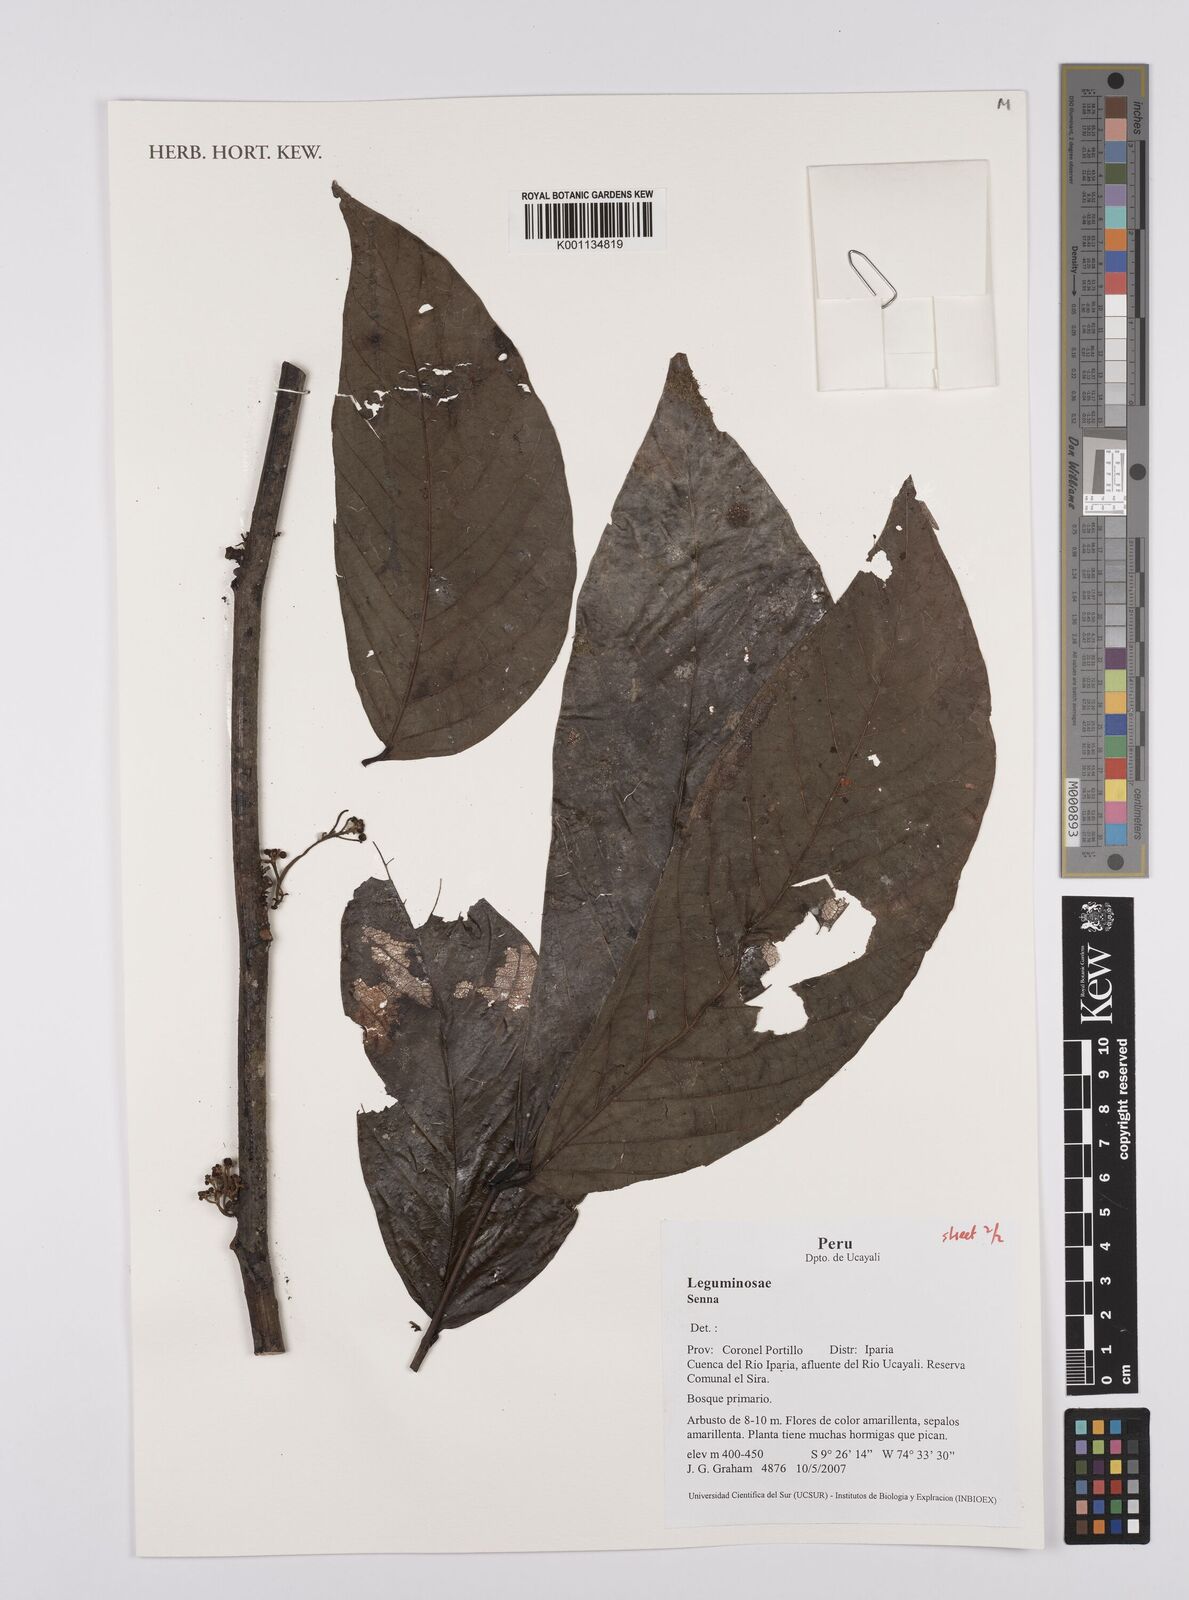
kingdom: Plantae
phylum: Tracheophyta
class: Magnoliopsida
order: Fabales
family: Fabaceae
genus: Senna
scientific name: Senna
